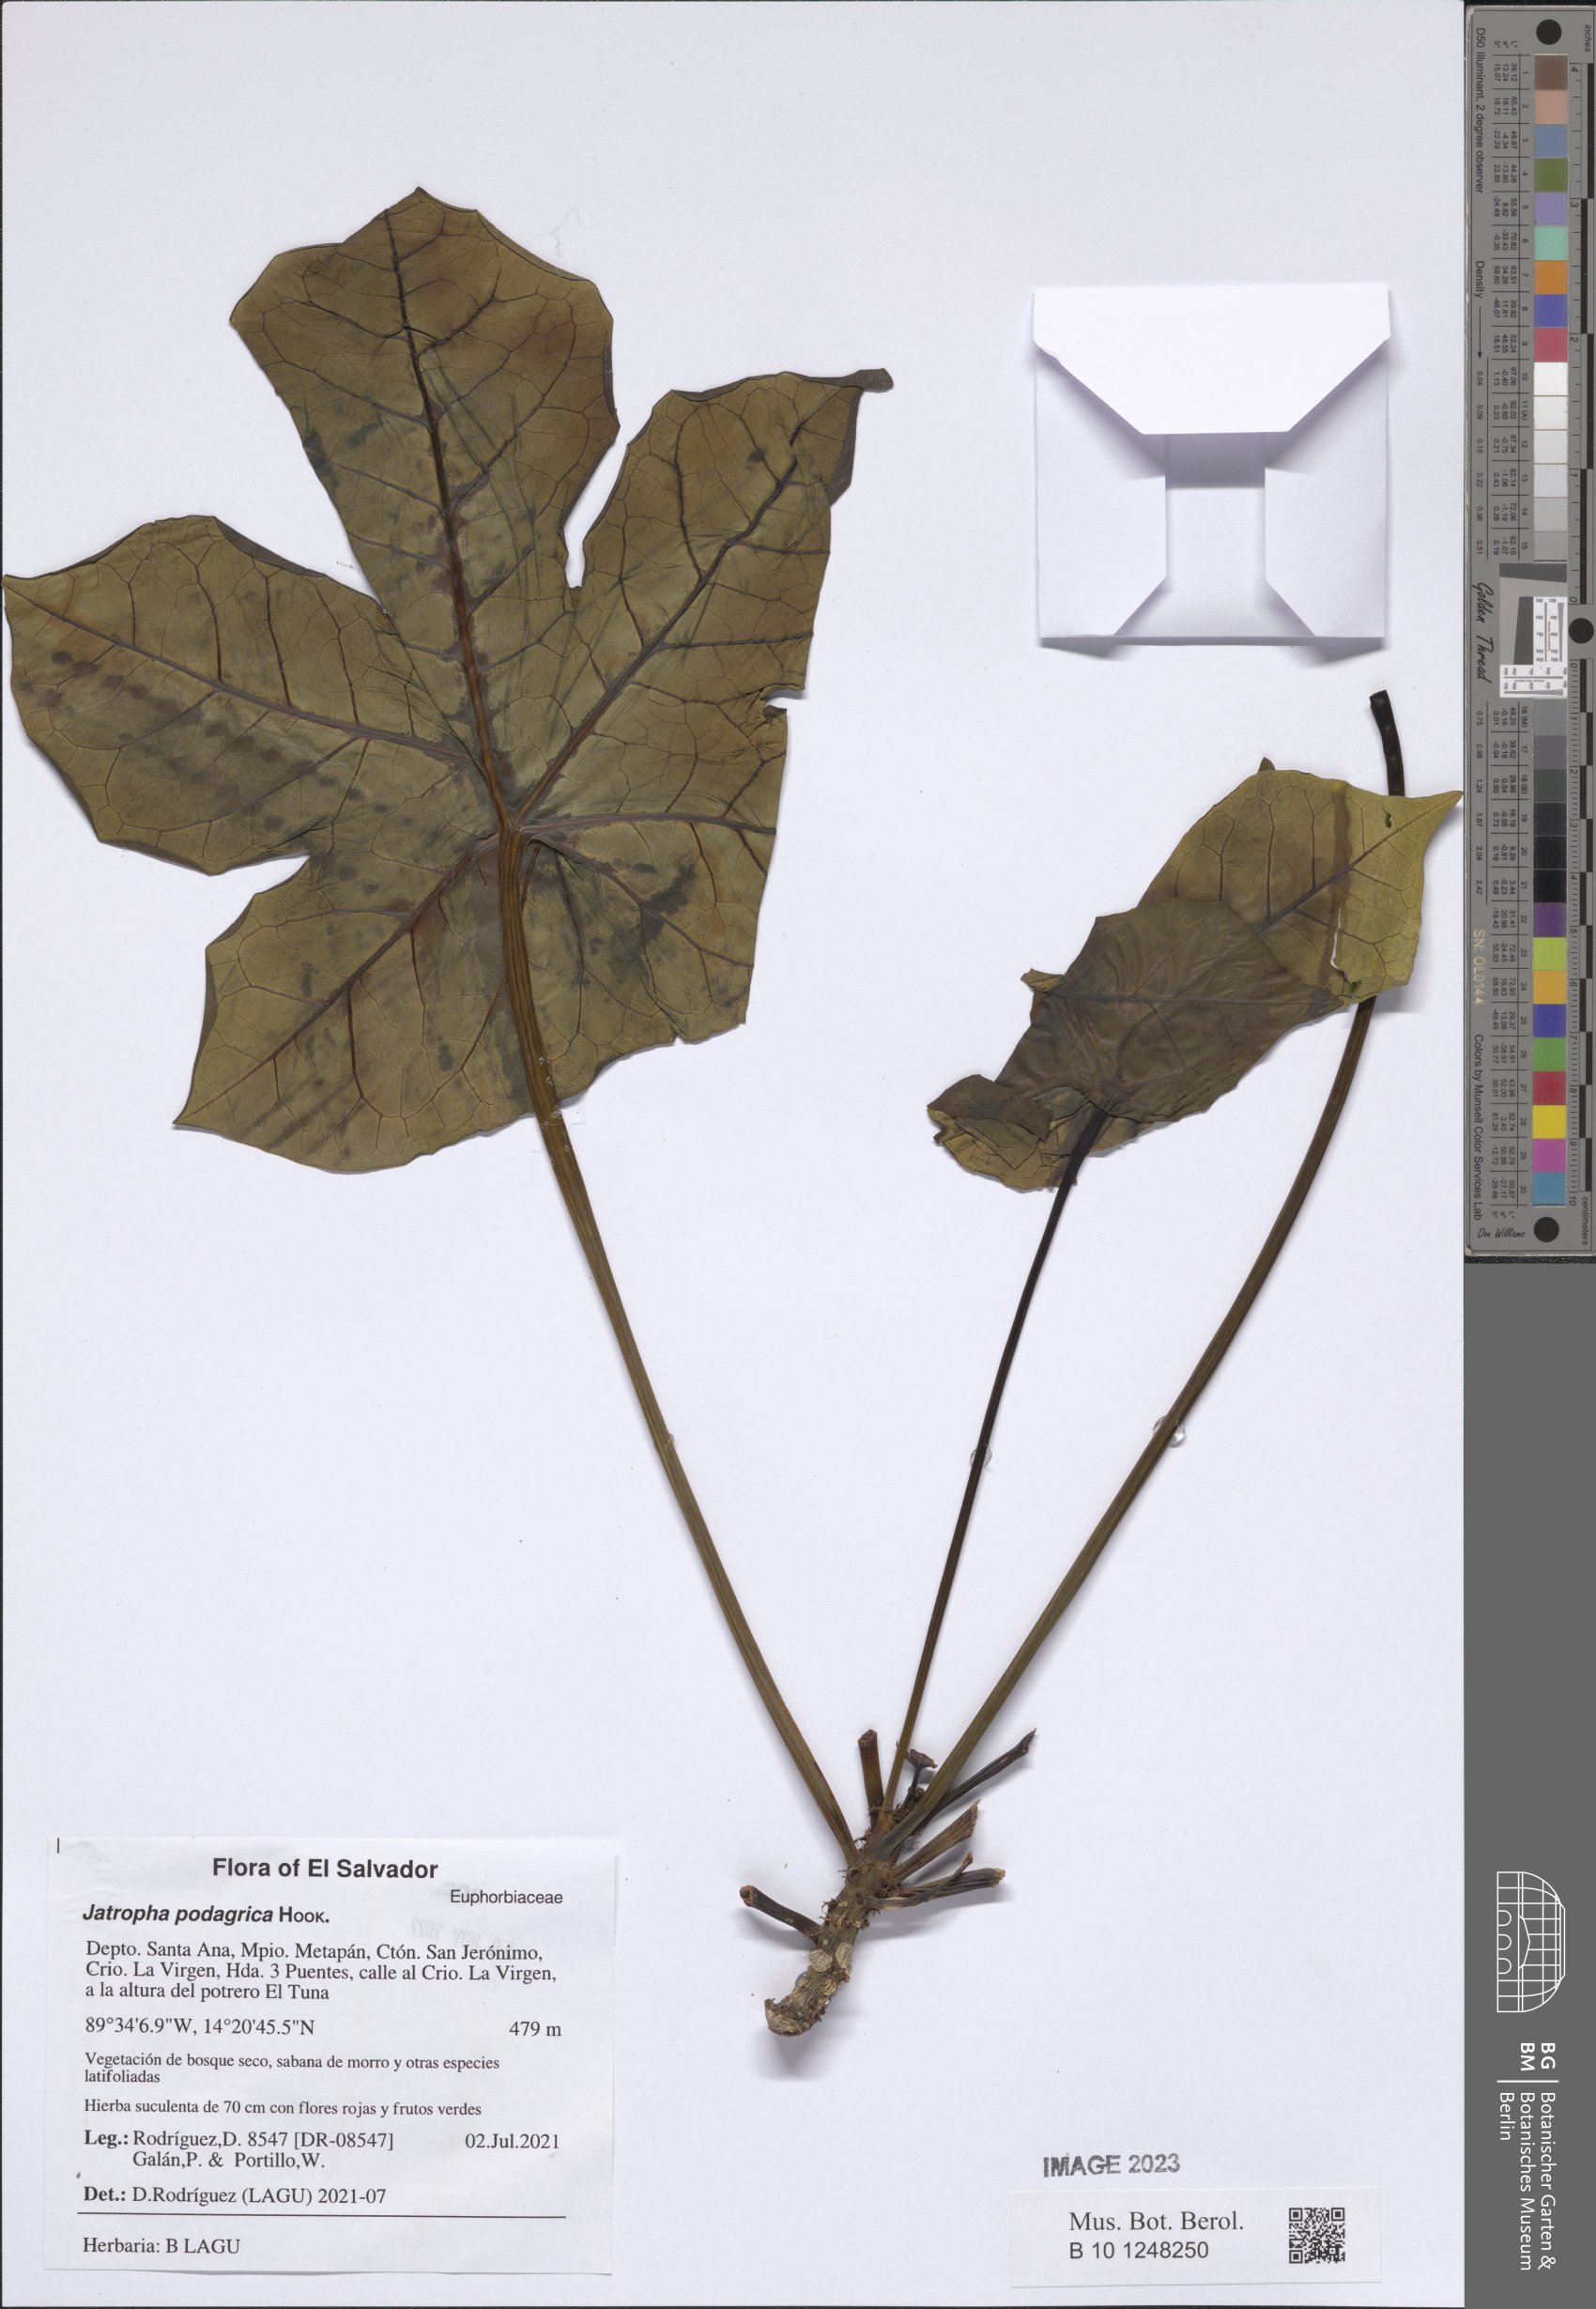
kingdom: Plantae
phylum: Tracheophyta
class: Magnoliopsida
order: Malpighiales
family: Euphorbiaceae
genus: Jatropha
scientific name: Jatropha podagrica
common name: Gout stalk
